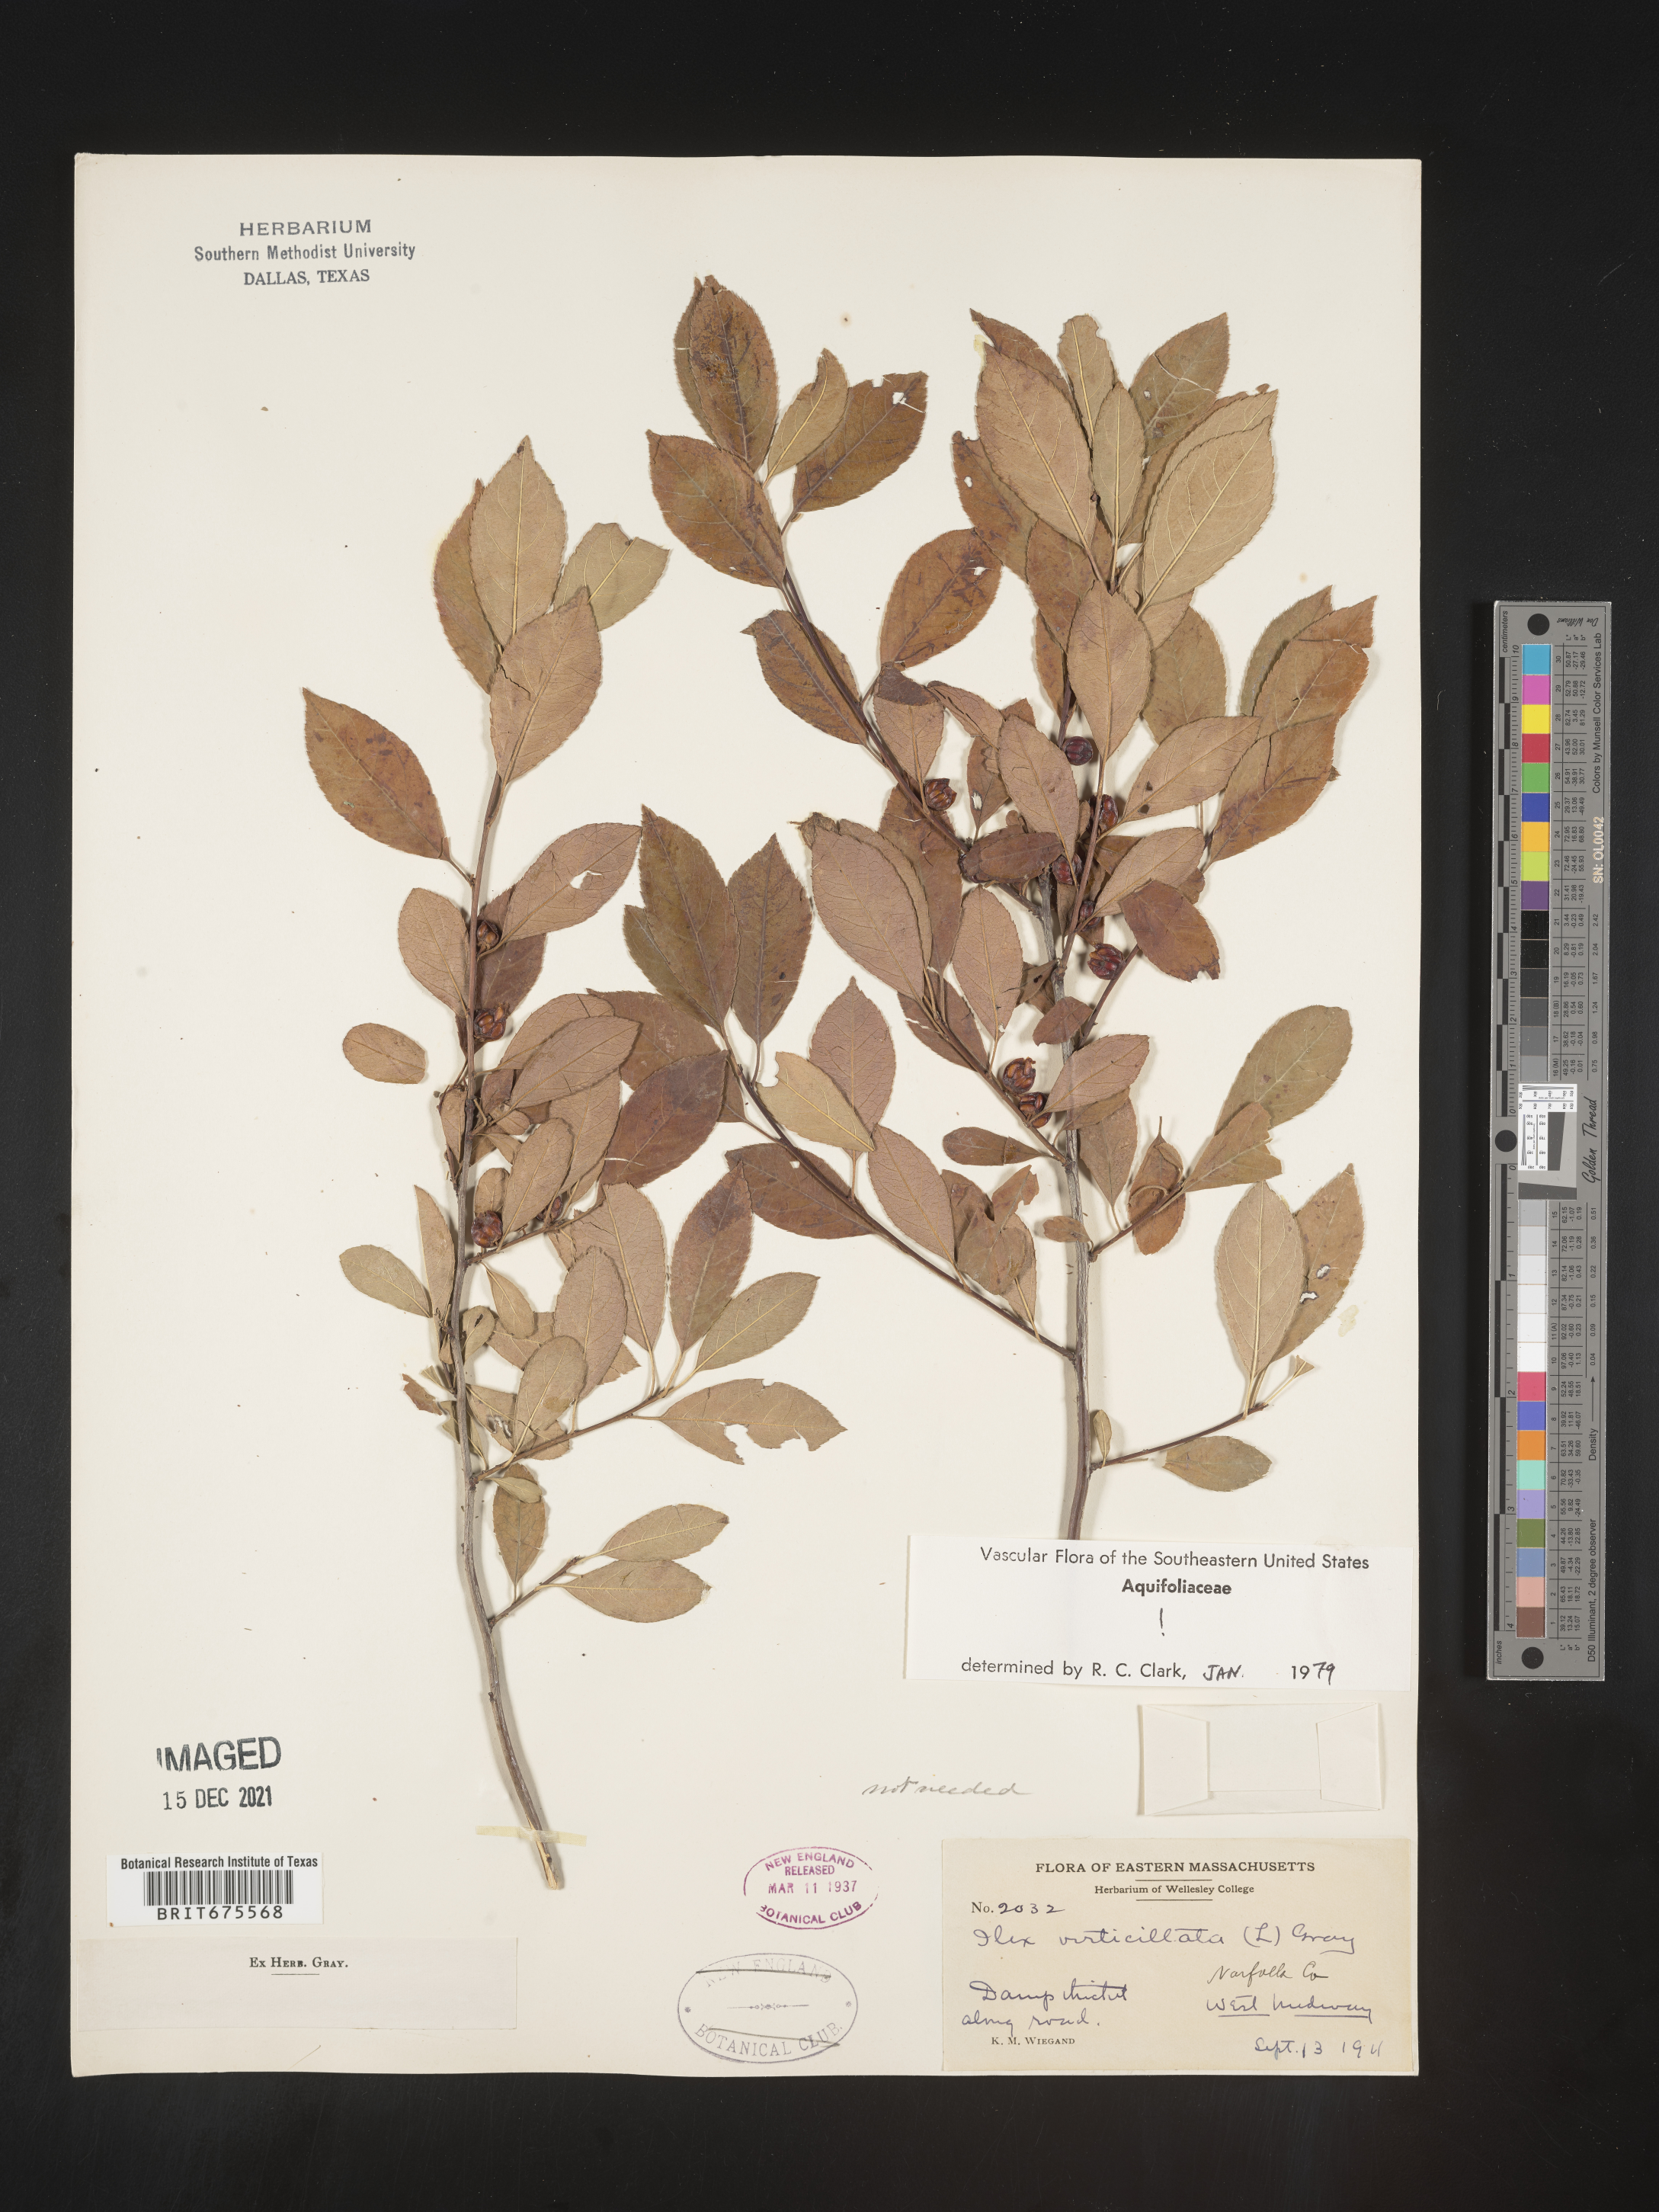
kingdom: Plantae
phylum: Tracheophyta
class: Magnoliopsida
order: Aquifoliales
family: Aquifoliaceae
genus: Ilex
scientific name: Ilex verticillata
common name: Virginia winterberry
